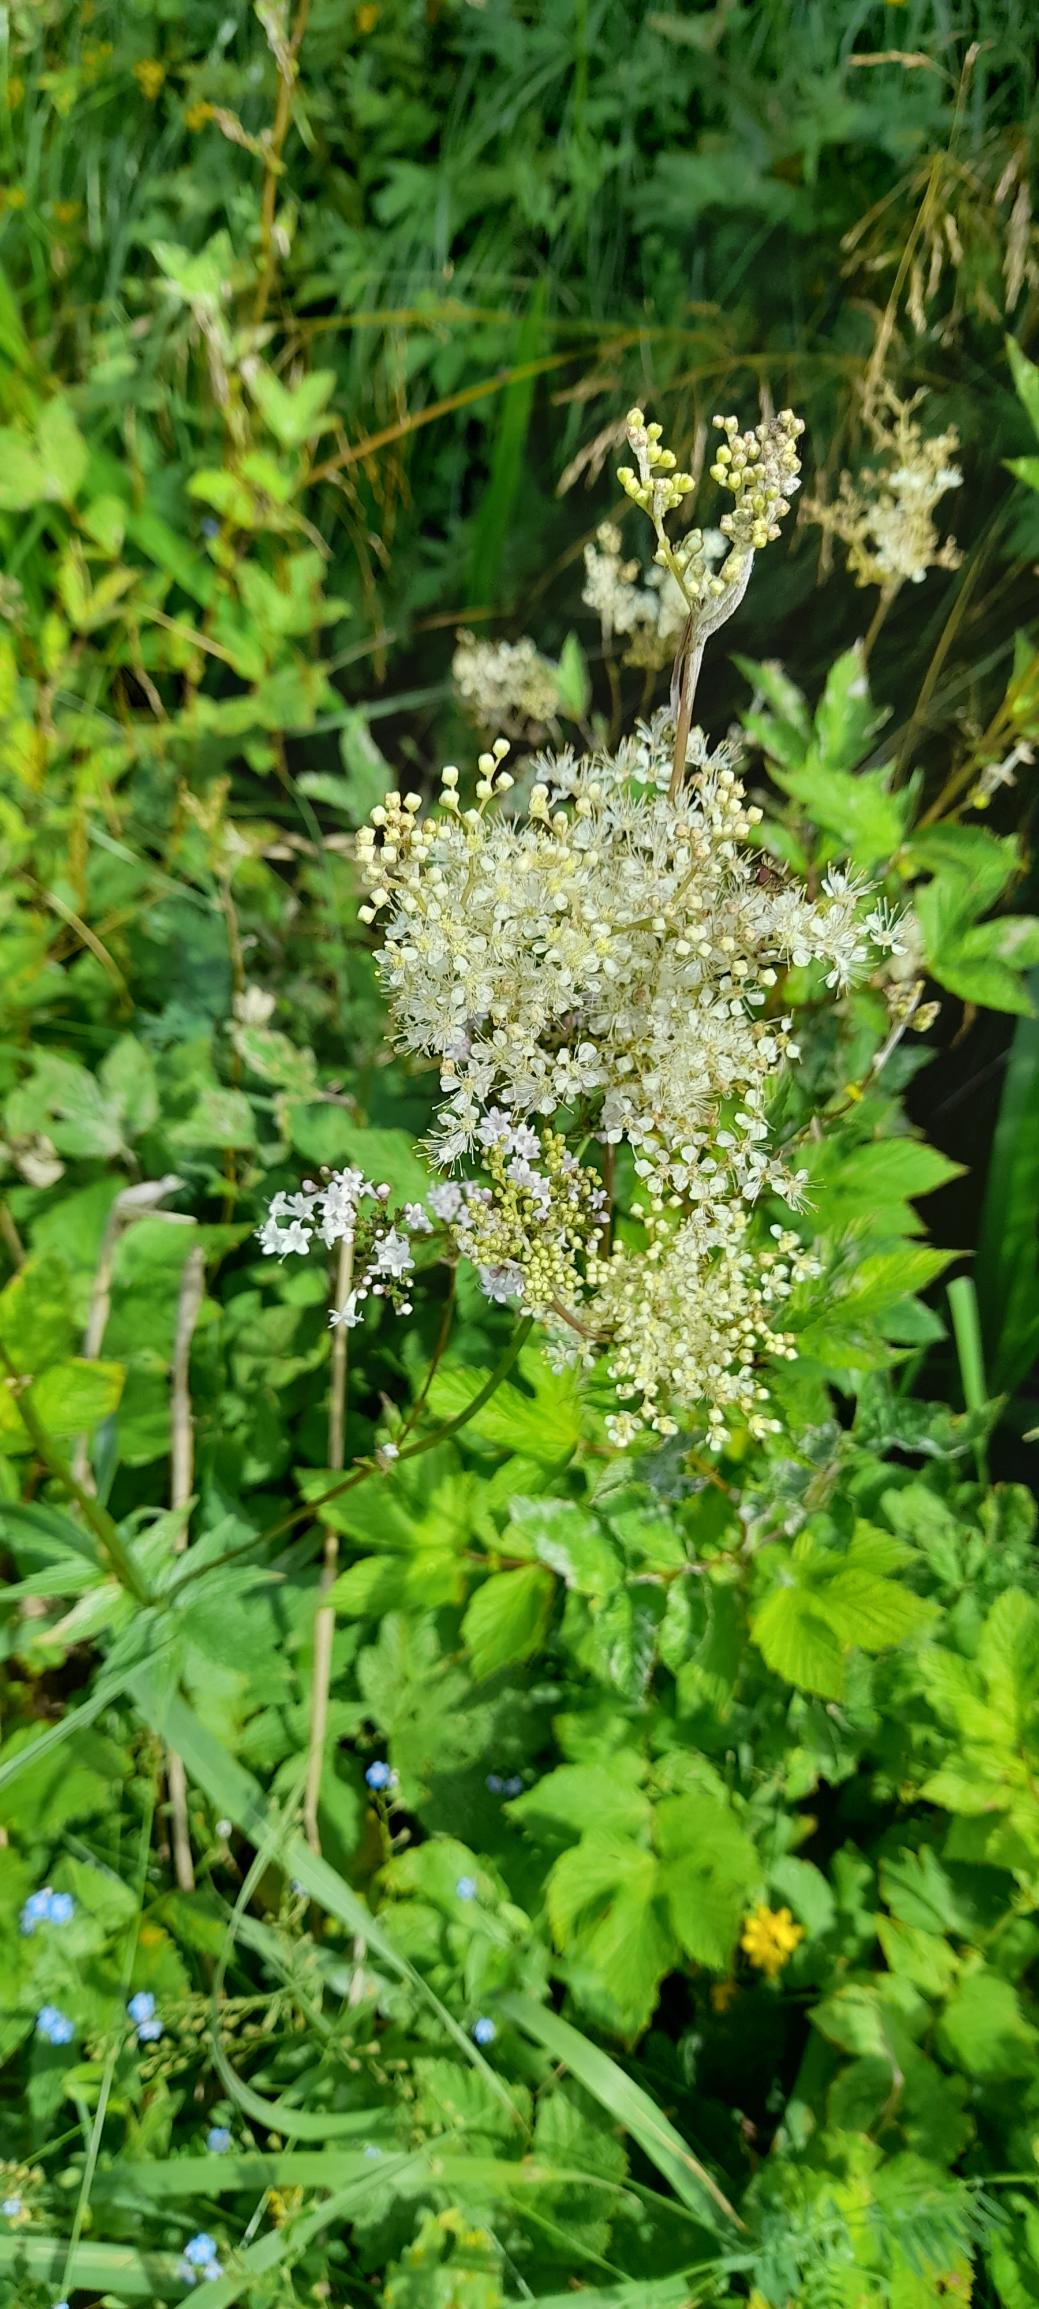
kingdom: Plantae
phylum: Tracheophyta
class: Magnoliopsida
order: Rosales
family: Rosaceae
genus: Filipendula
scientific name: Filipendula ulmaria
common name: Almindelig mjødurt
